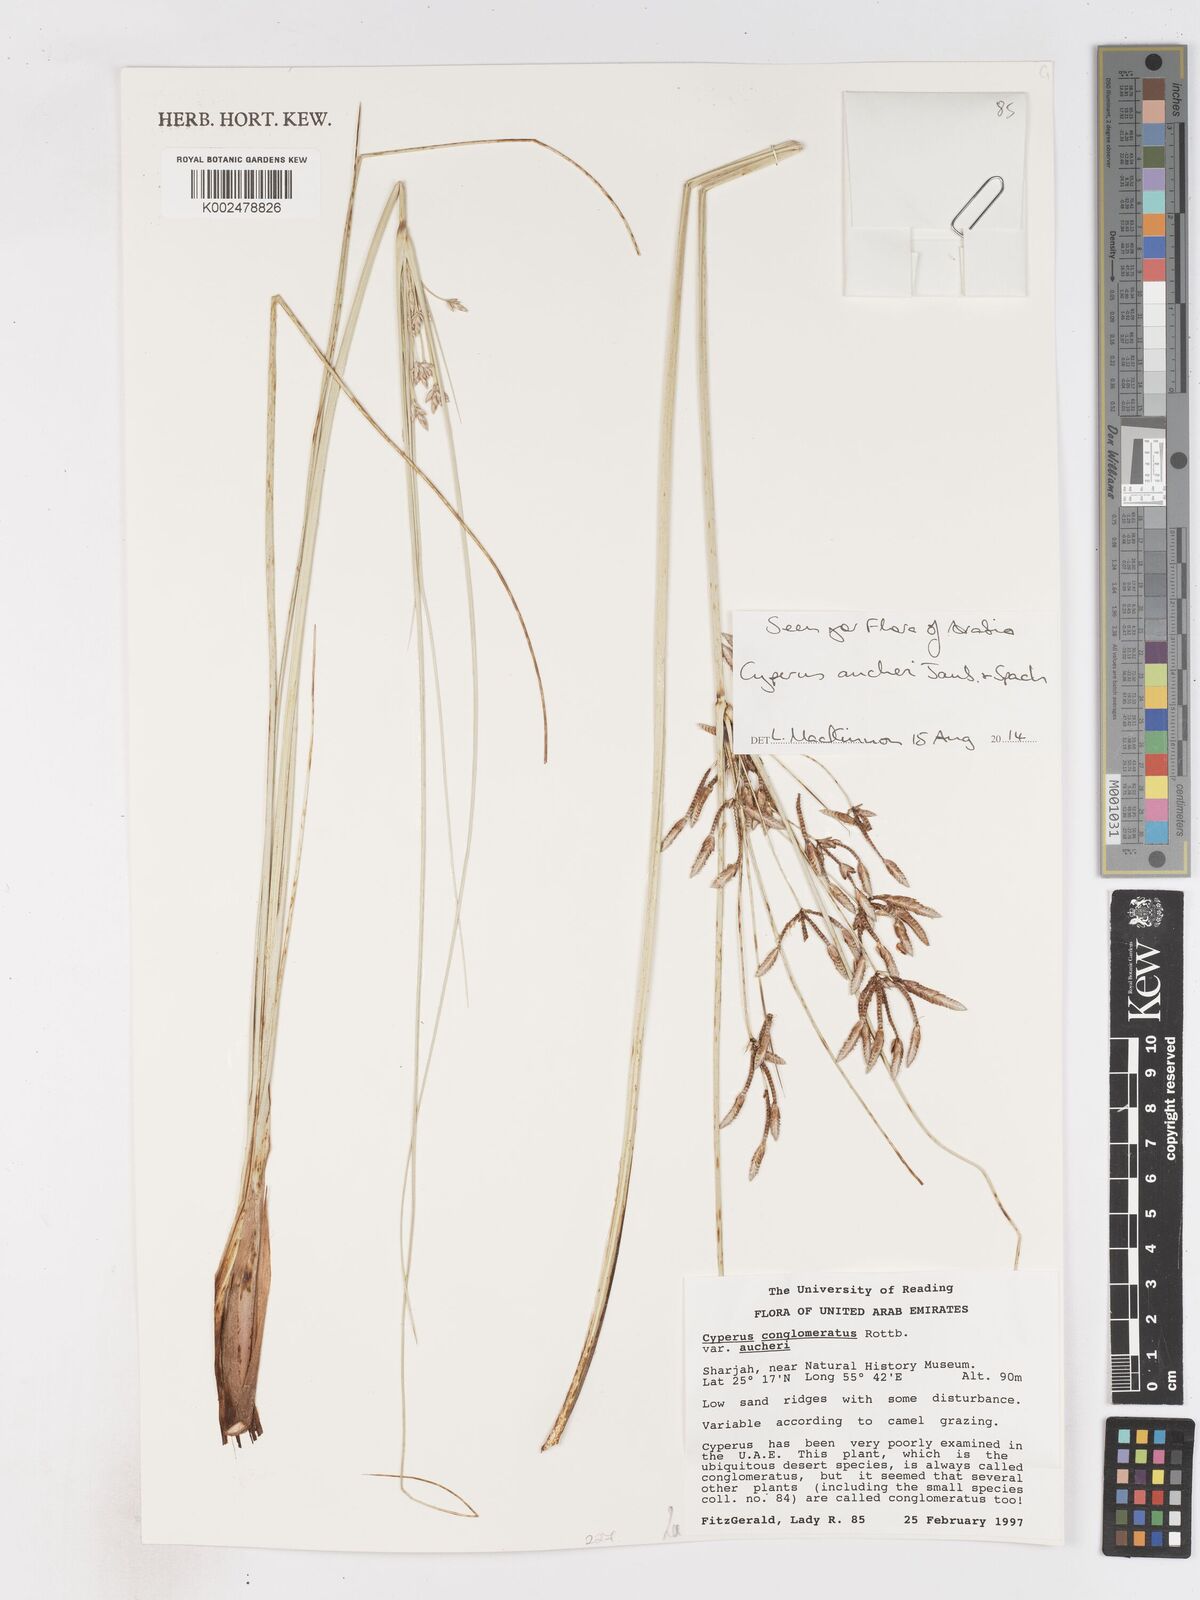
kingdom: Plantae
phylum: Tracheophyta
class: Liliopsida
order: Poales
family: Cyperaceae
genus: Cyperus
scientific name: Cyperus aucheri
